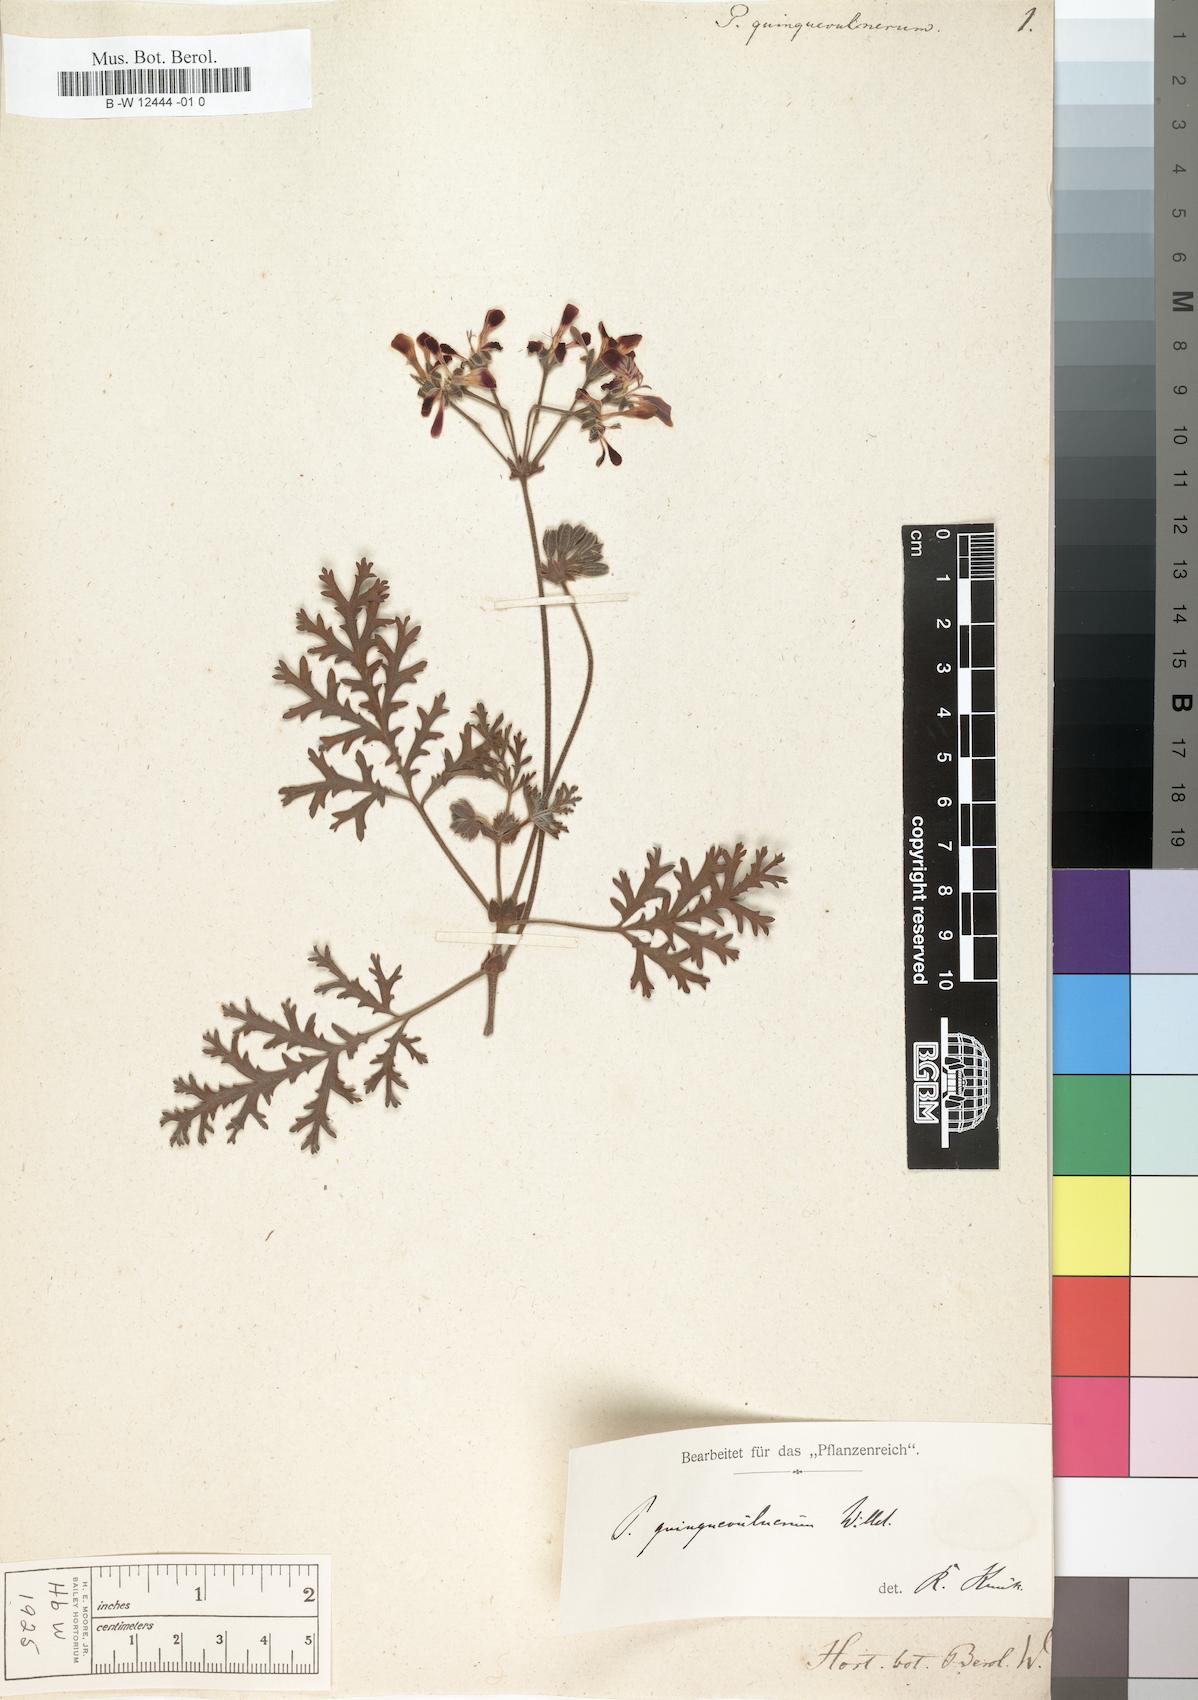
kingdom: Plantae
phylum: Tracheophyta
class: Magnoliopsida
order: Geraniales
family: Geraniaceae
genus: Pelargonium
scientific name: Pelargonium quinquevulnerum
